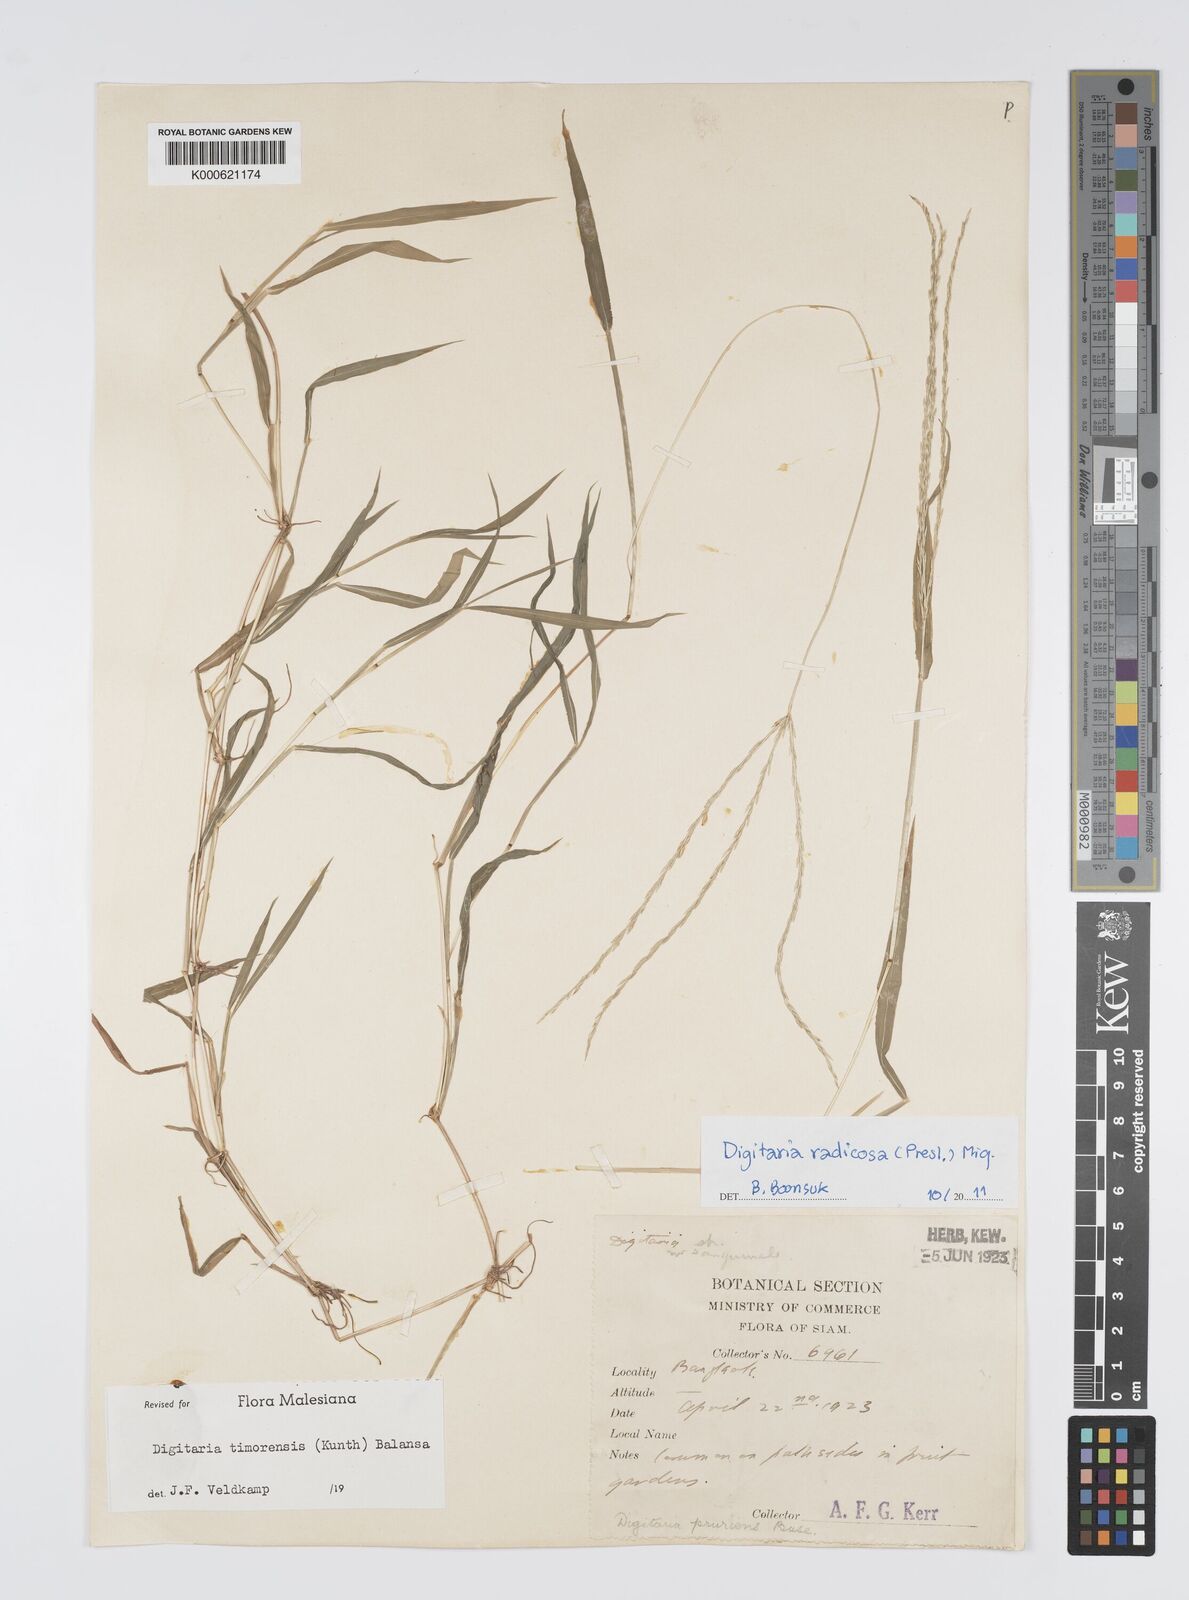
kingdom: Plantae
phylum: Tracheophyta
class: Liliopsida
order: Poales
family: Poaceae
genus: Digitaria
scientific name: Digitaria radicosa
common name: Trailing crabgrass
